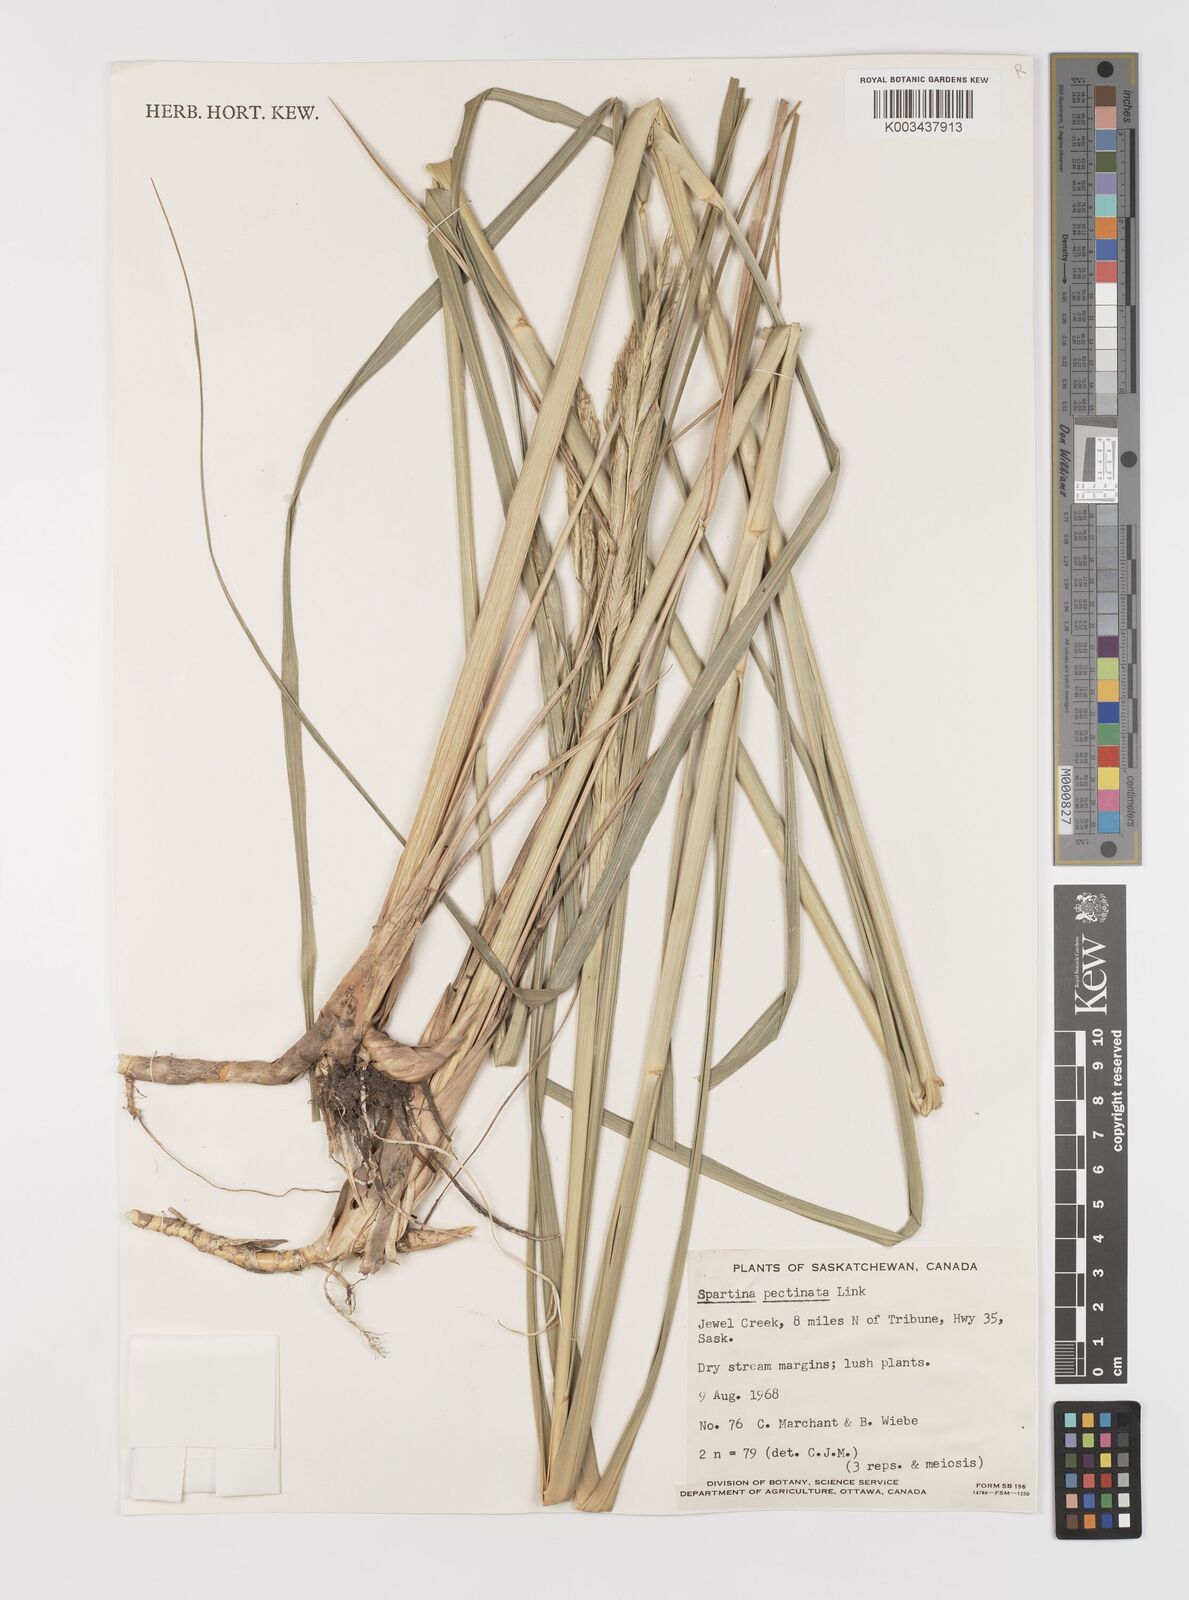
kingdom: Plantae
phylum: Tracheophyta
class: Liliopsida
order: Poales
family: Poaceae
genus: Sporobolus
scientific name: Sporobolus michauxianus
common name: Freshwater cordgrass
